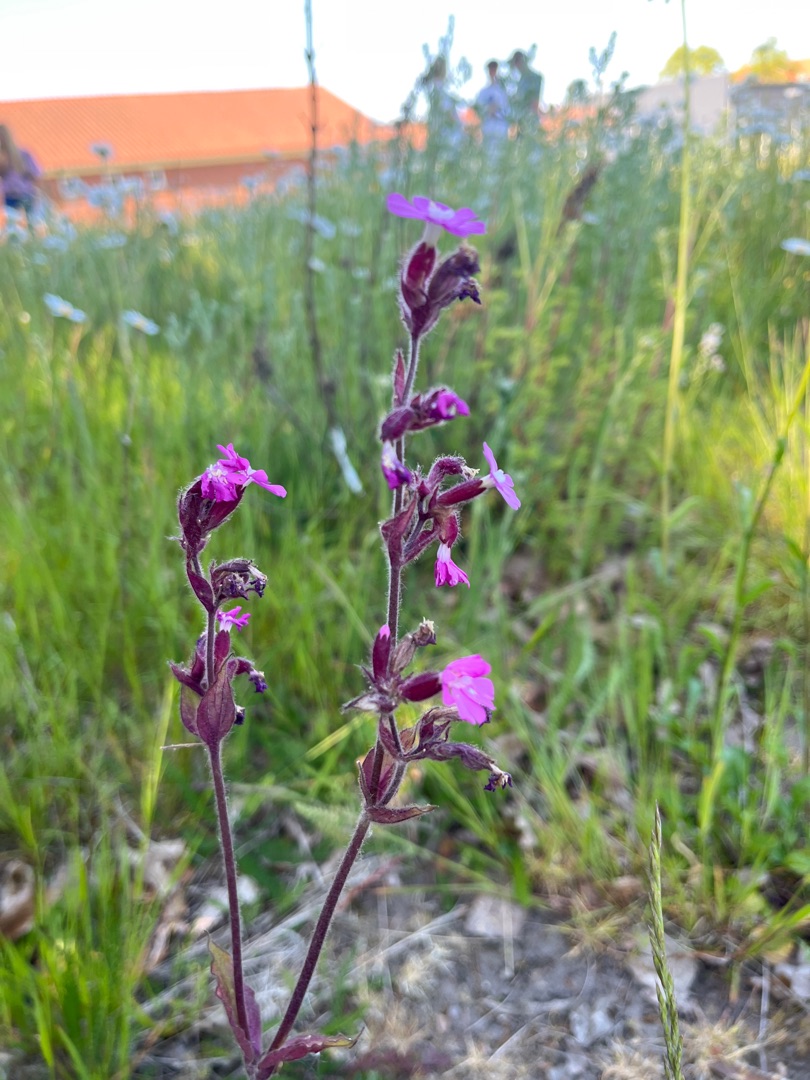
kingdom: Plantae
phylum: Tracheophyta
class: Magnoliopsida
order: Caryophyllales
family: Caryophyllaceae
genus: Silene
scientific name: Silene dioica
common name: Dagpragtstjerne
